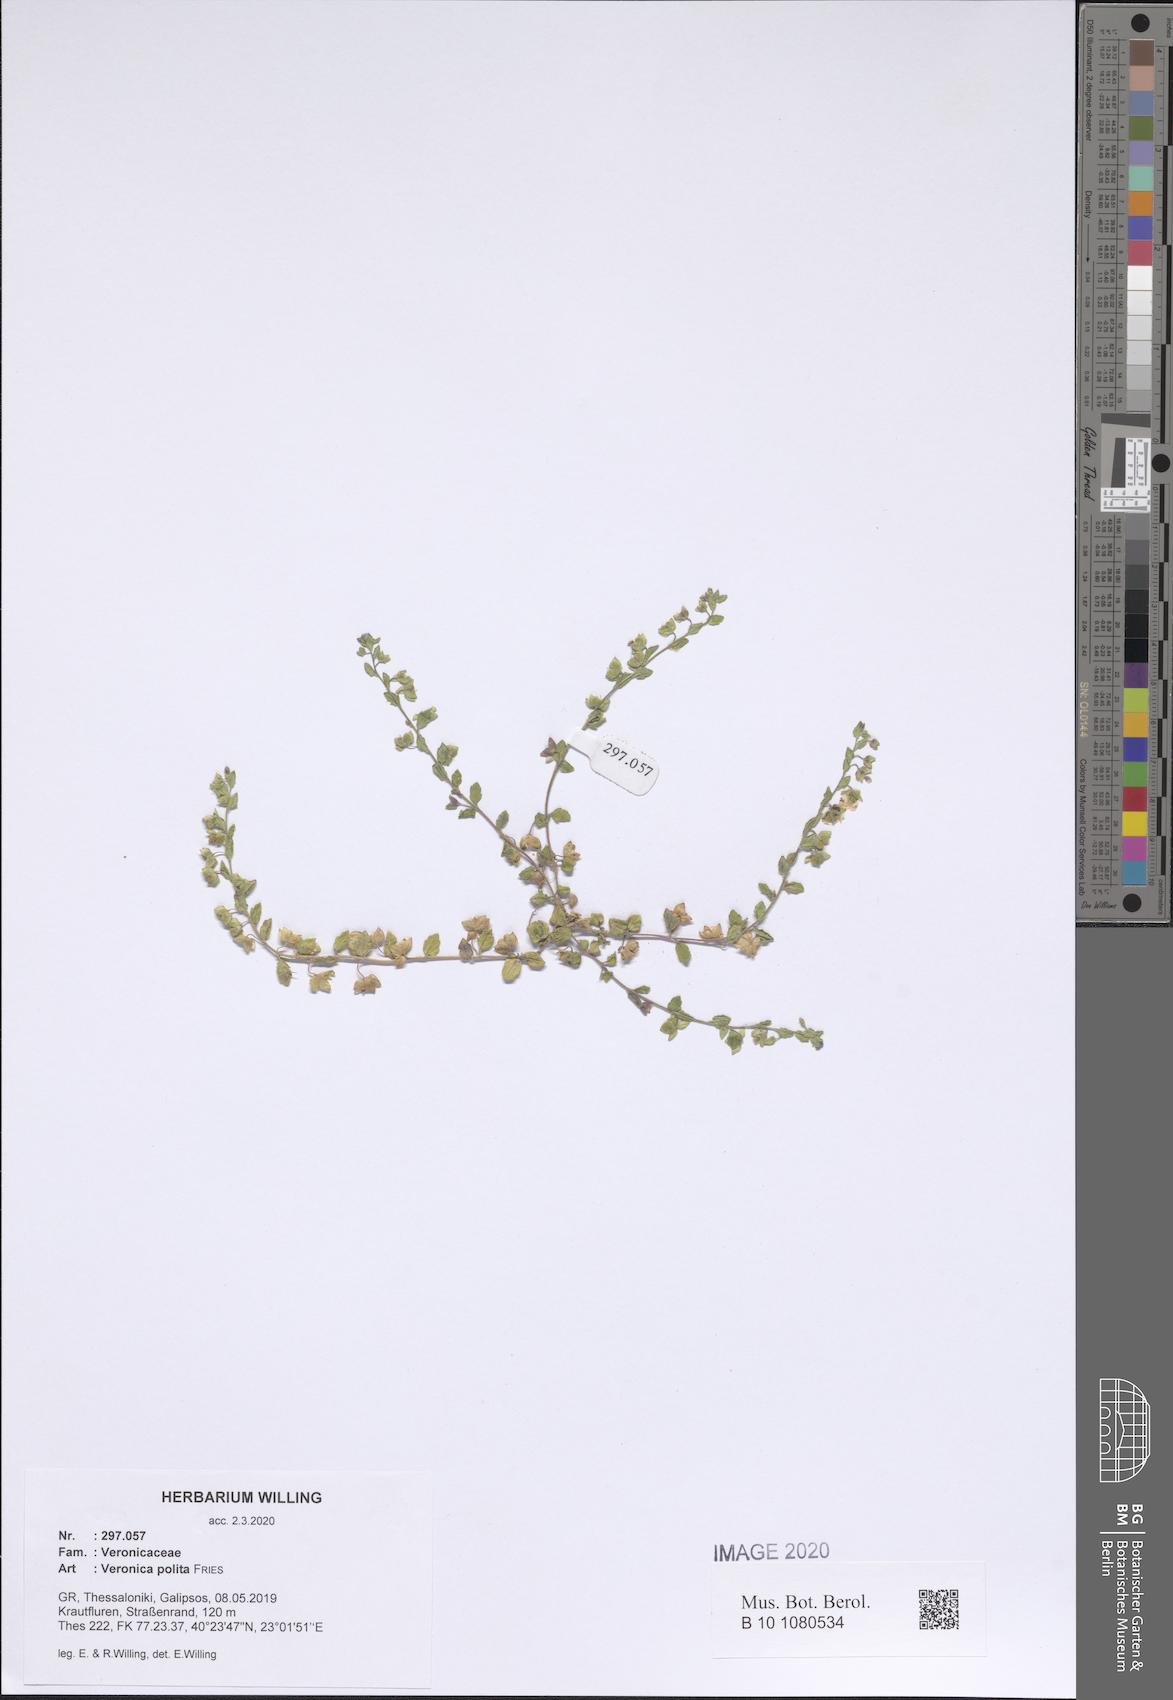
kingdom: Plantae
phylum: Tracheophyta
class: Magnoliopsida
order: Lamiales
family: Plantaginaceae
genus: Veronica
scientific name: Veronica polita
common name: Grey field-speedwell
